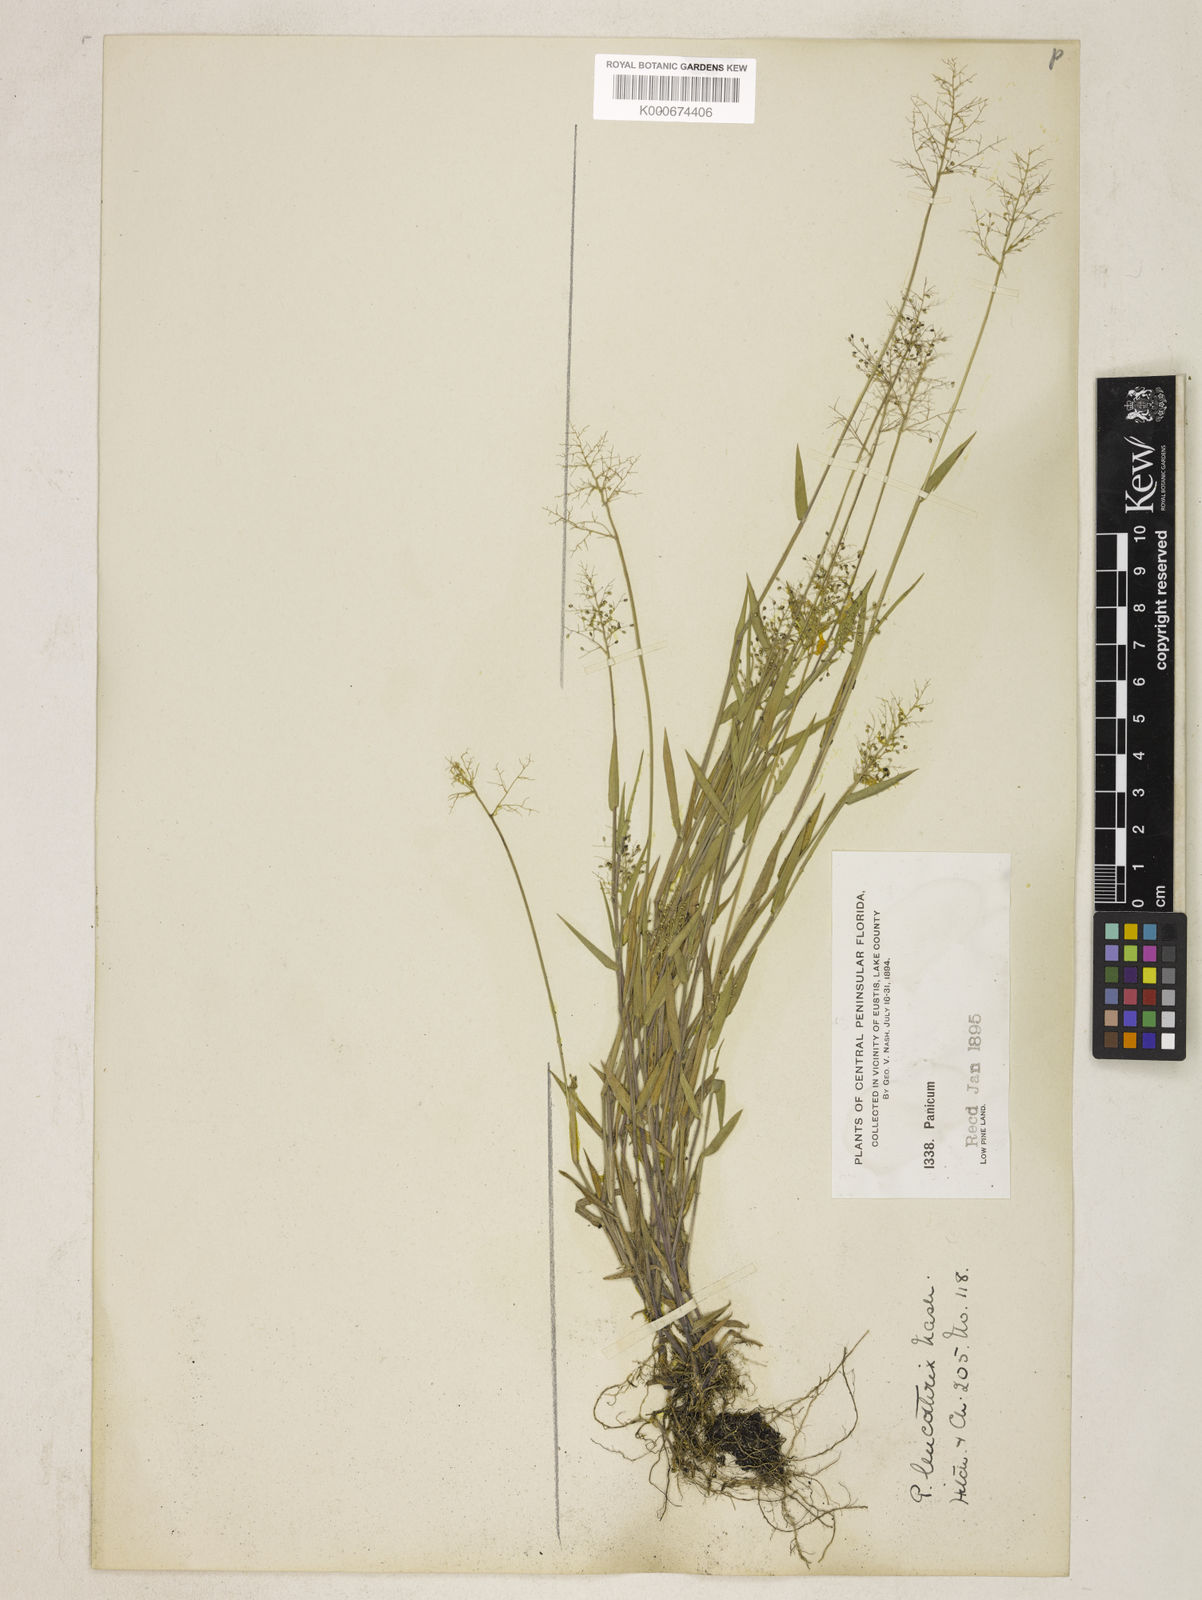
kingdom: Plantae
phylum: Tracheophyta
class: Liliopsida
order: Poales
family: Poaceae
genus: Dichanthelium
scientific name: Dichanthelium leucothrix
